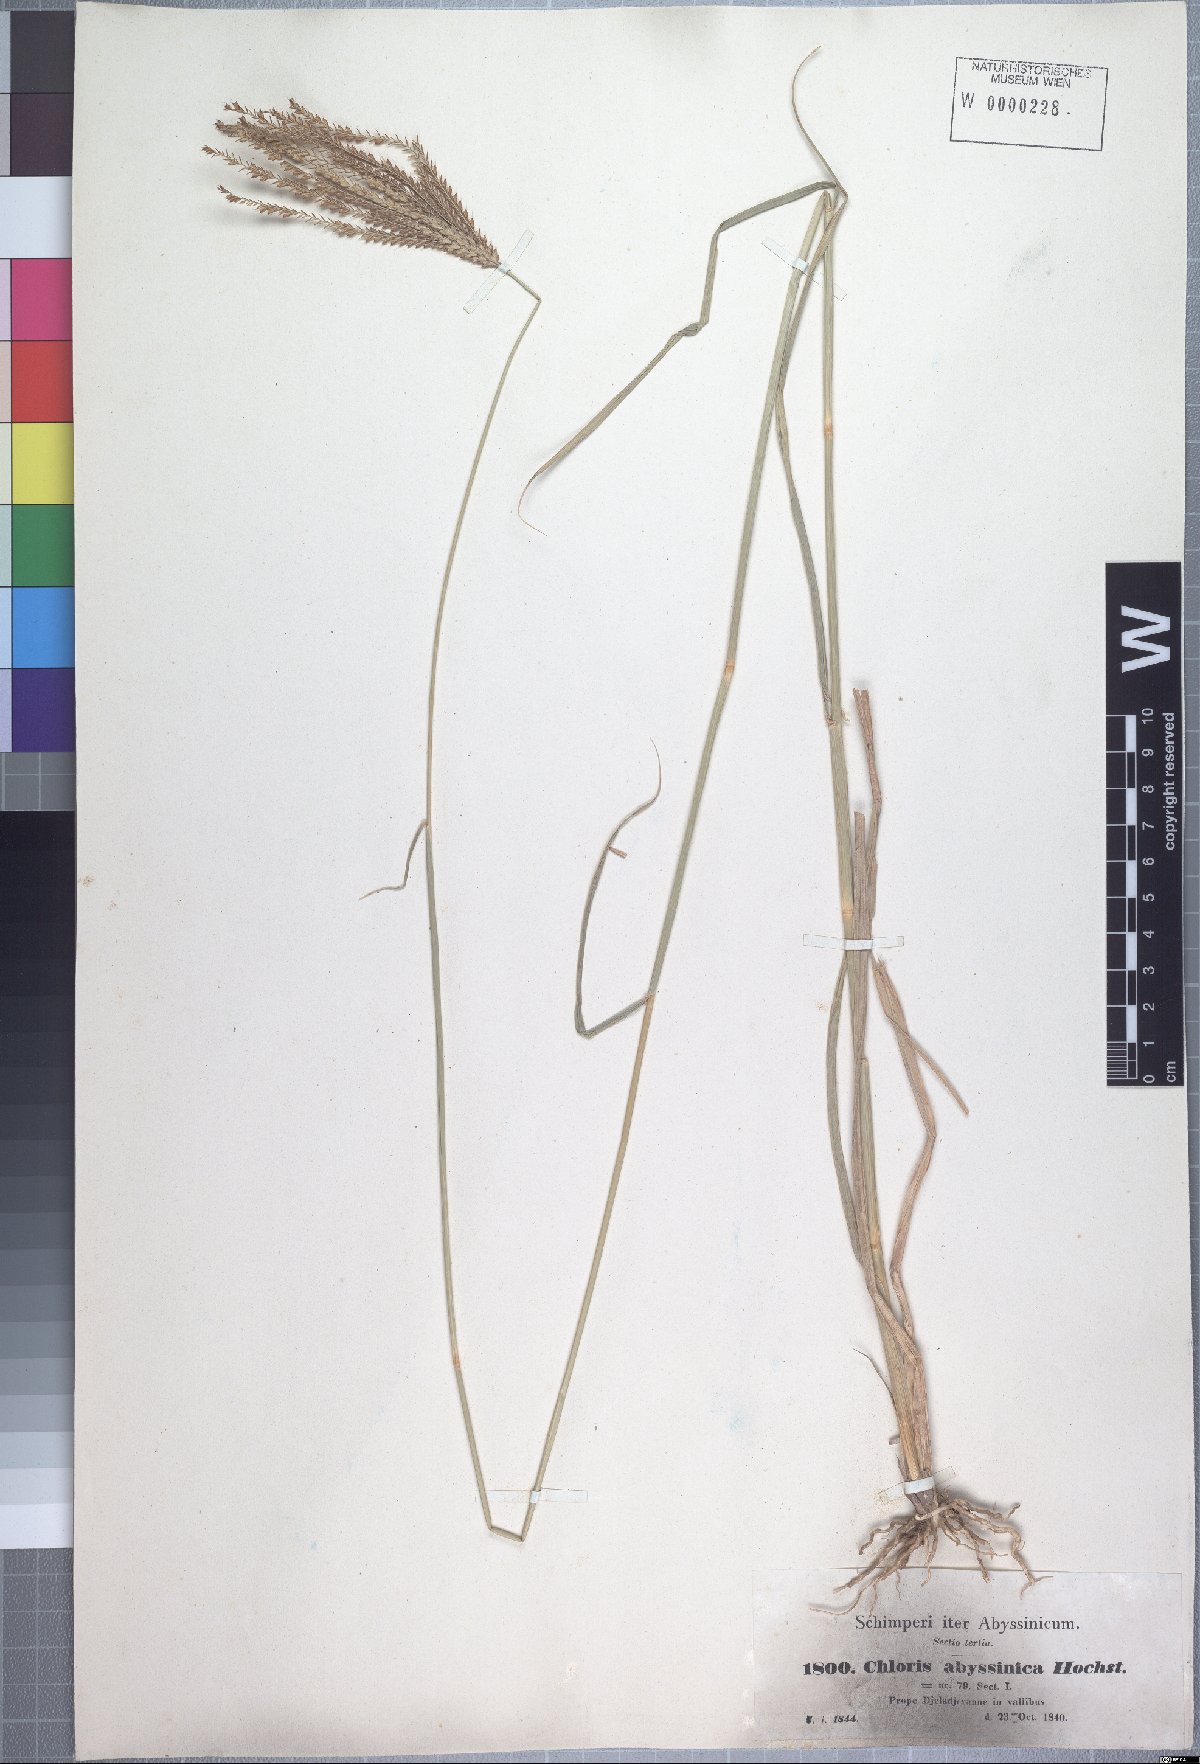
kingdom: Plantae
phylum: Tracheophyta
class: Liliopsida
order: Poales
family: Poaceae
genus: Chloris
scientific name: Chloris gayana
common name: Rhodes grass
